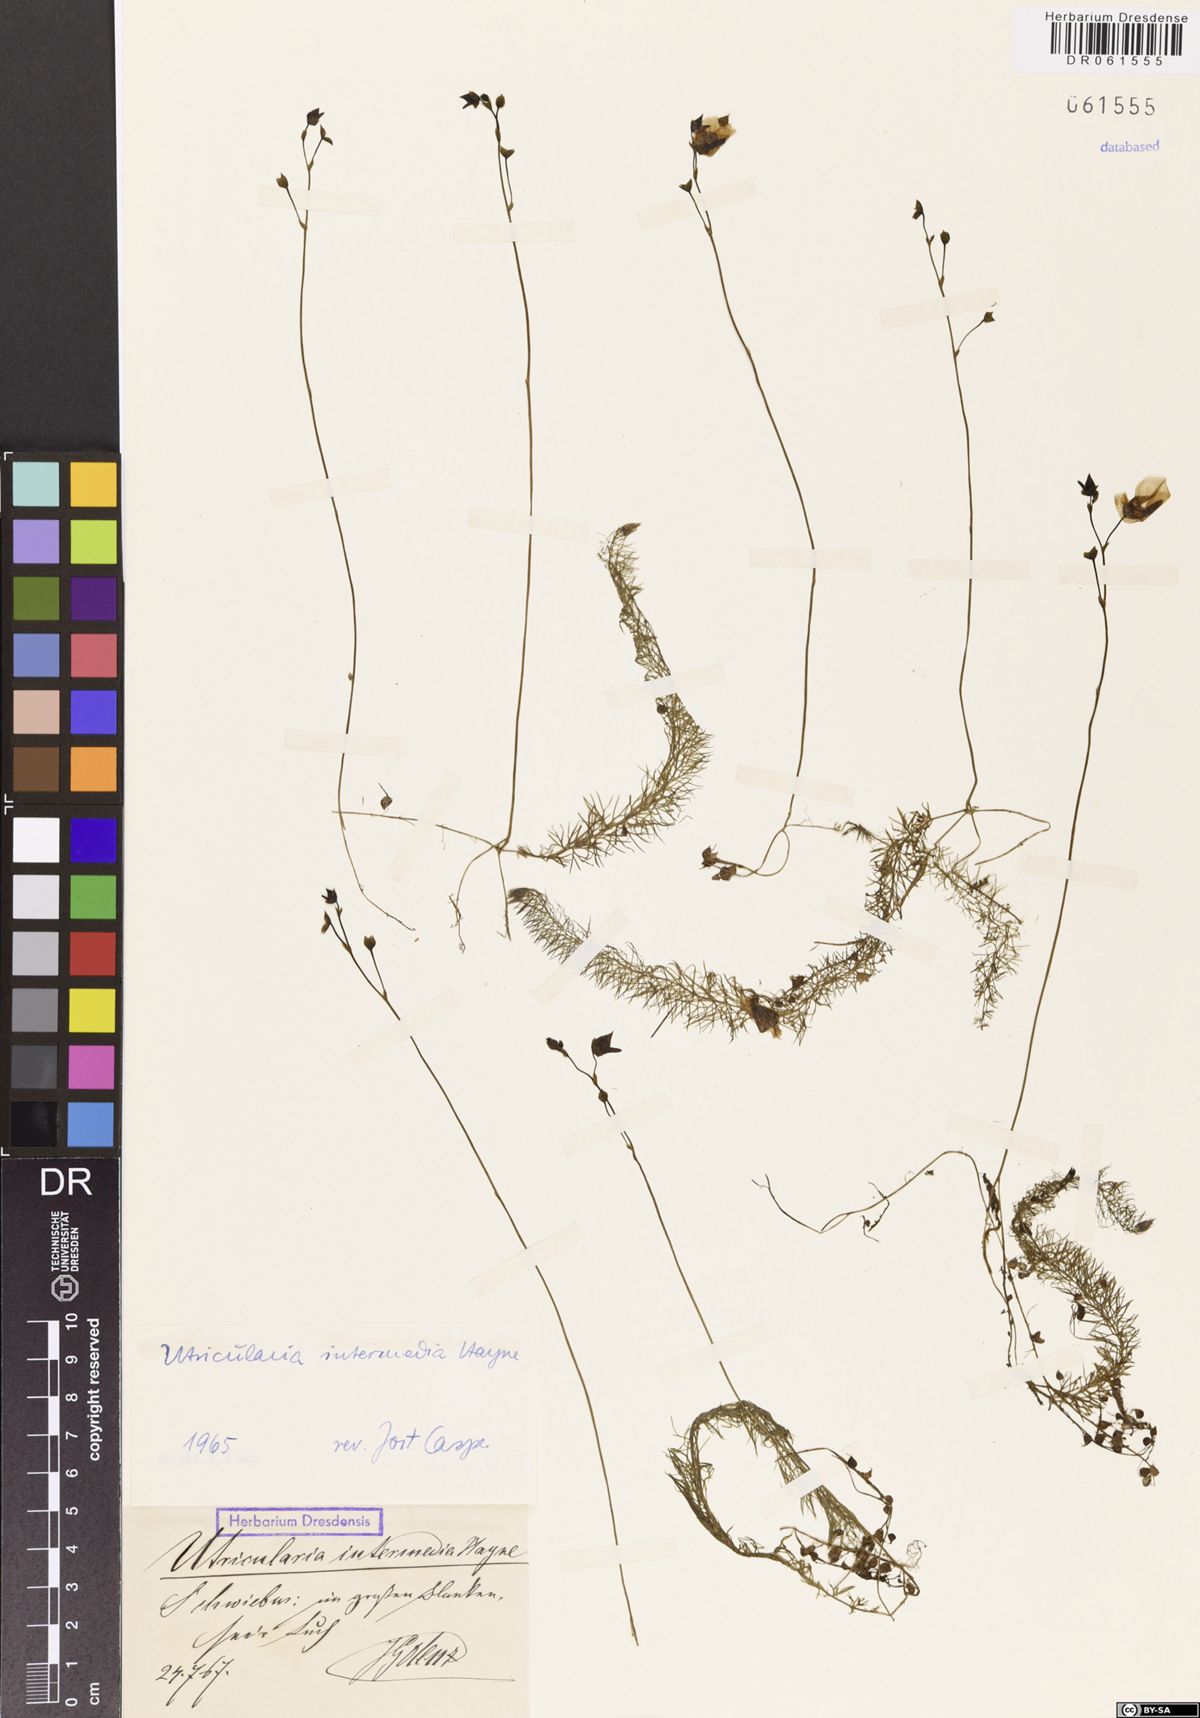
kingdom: Plantae
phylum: Tracheophyta
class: Magnoliopsida
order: Lamiales
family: Lentibulariaceae
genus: Utricularia
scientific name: Utricularia intermedia
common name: Intermediate bladderwort
